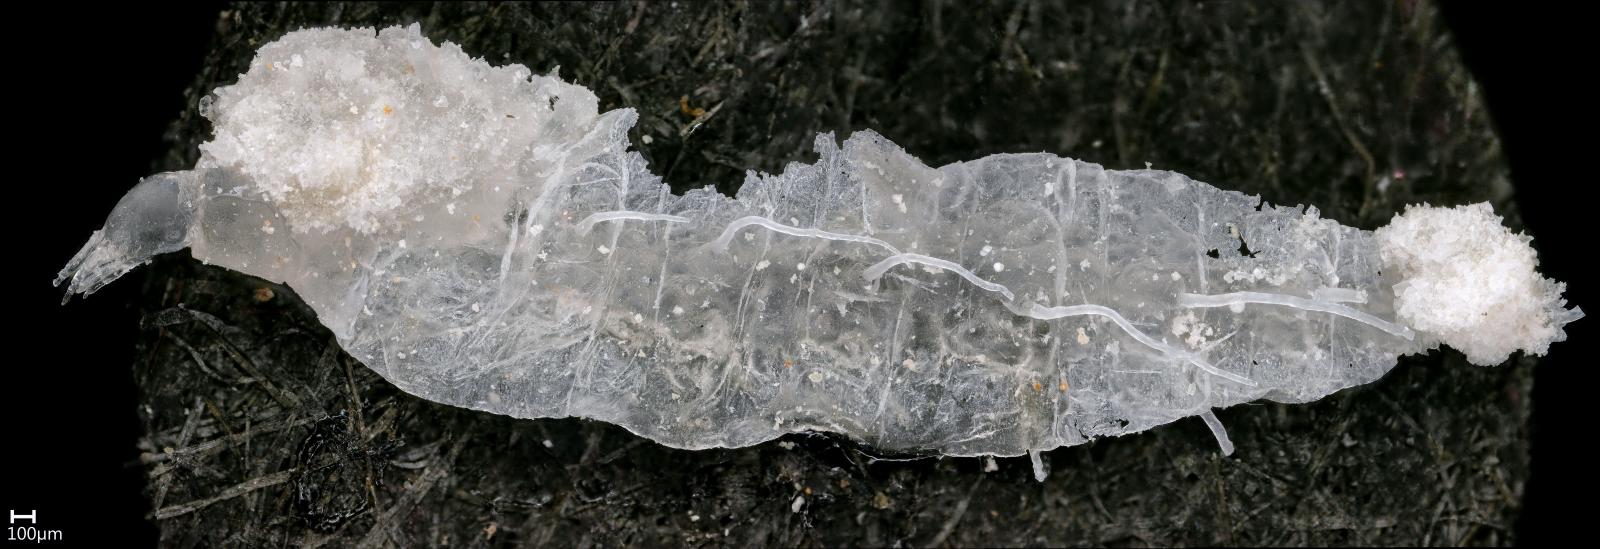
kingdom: Animalia
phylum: Arthropoda
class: Insecta
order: Neuroptera
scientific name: Neuroptera
